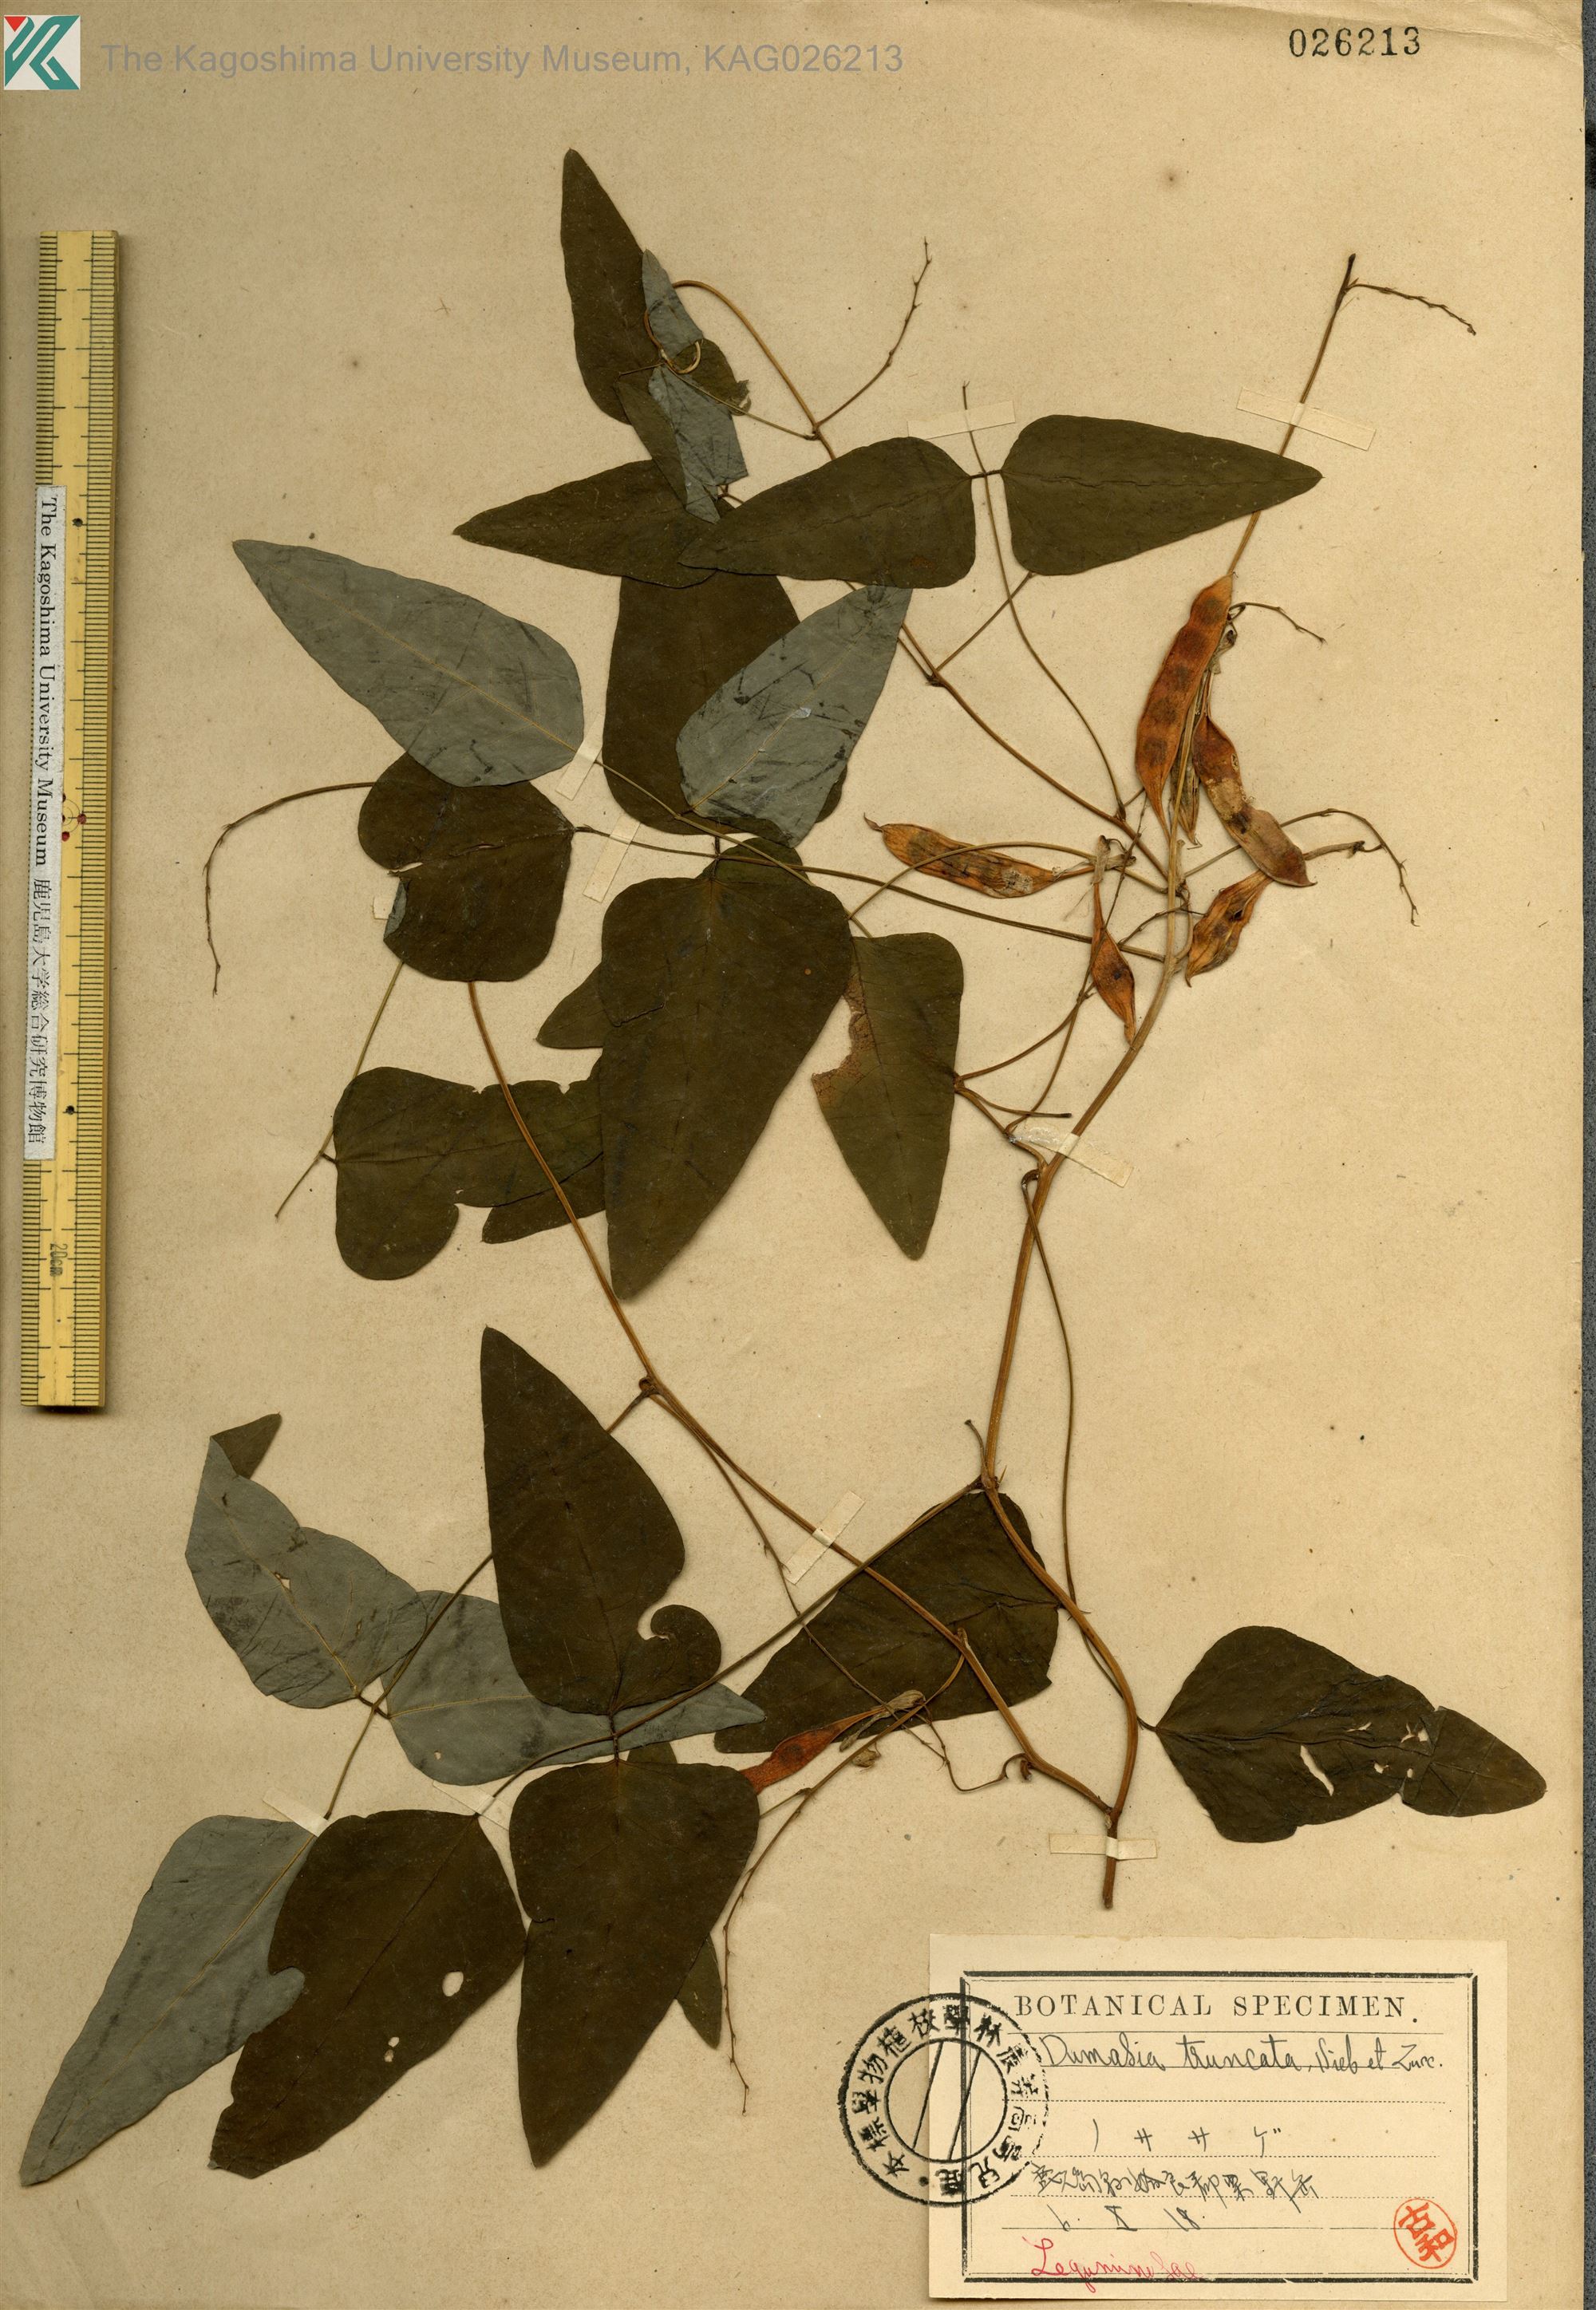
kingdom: Plantae
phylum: Tracheophyta
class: Magnoliopsida
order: Fabales
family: Fabaceae
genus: Dumasia
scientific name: Dumasia truncata
